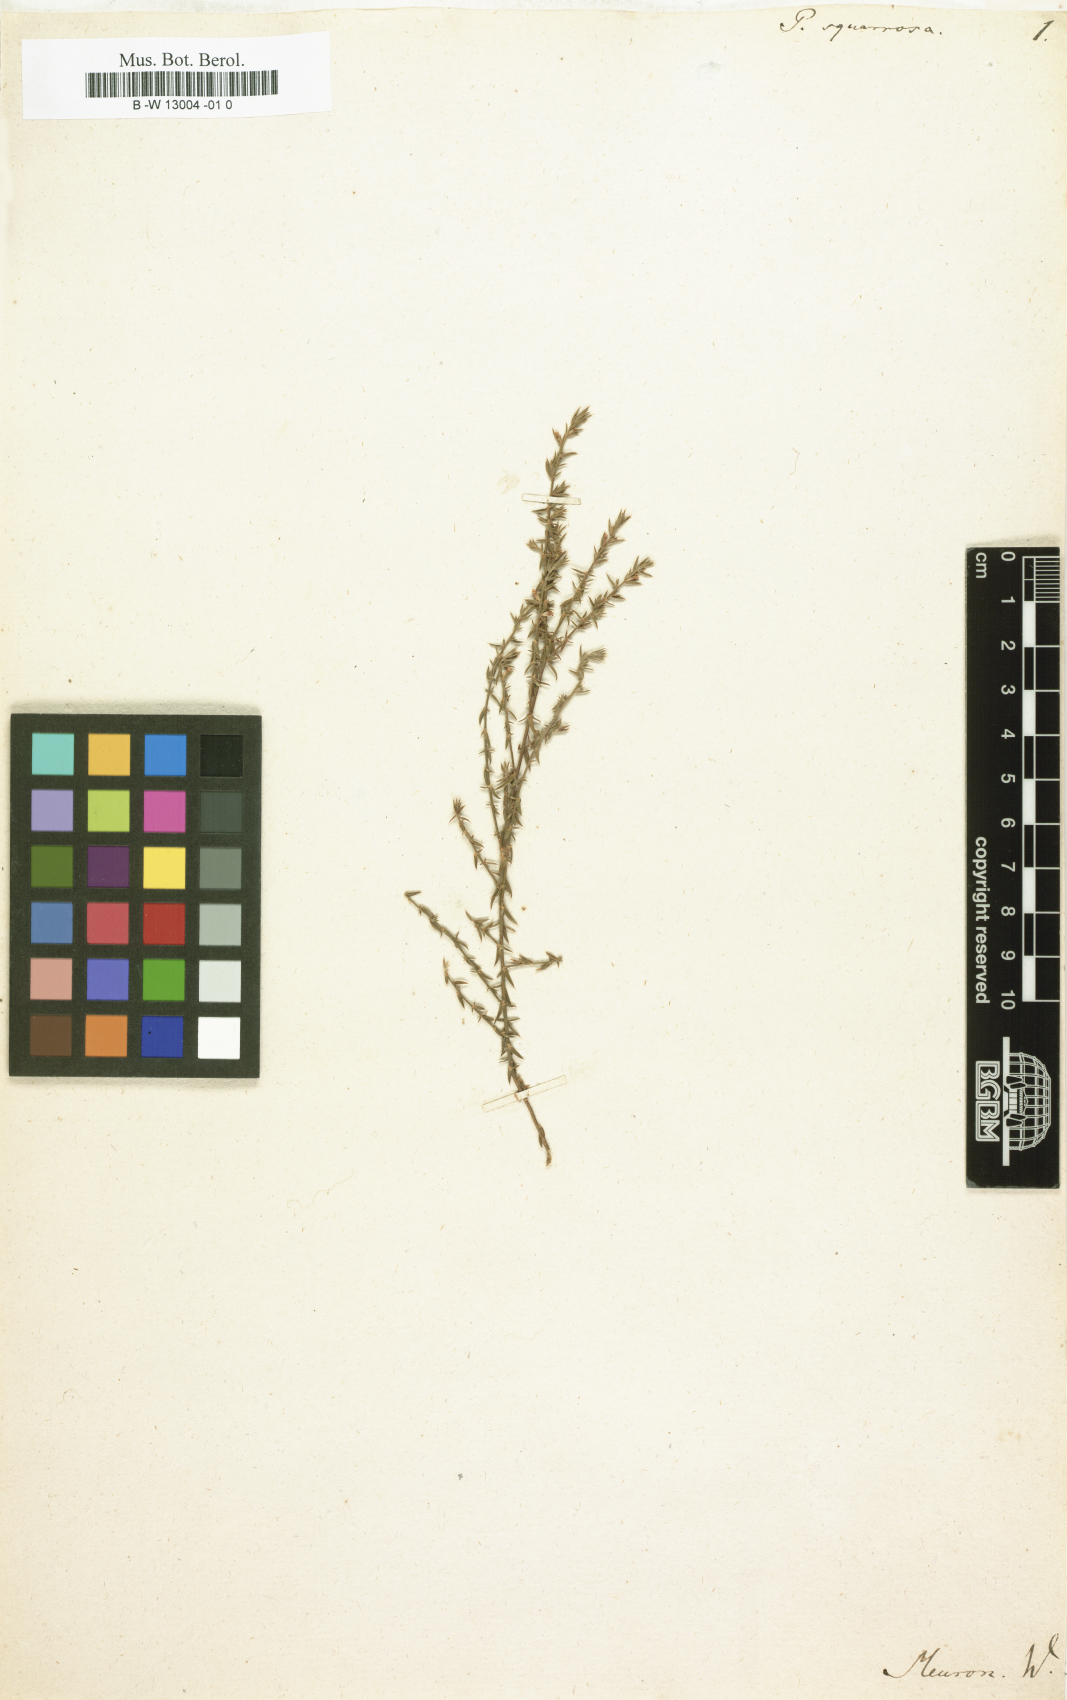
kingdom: Plantae
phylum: Tracheophyta
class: Magnoliopsida
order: Fabales
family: Polygalaceae
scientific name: Polygalaceae
